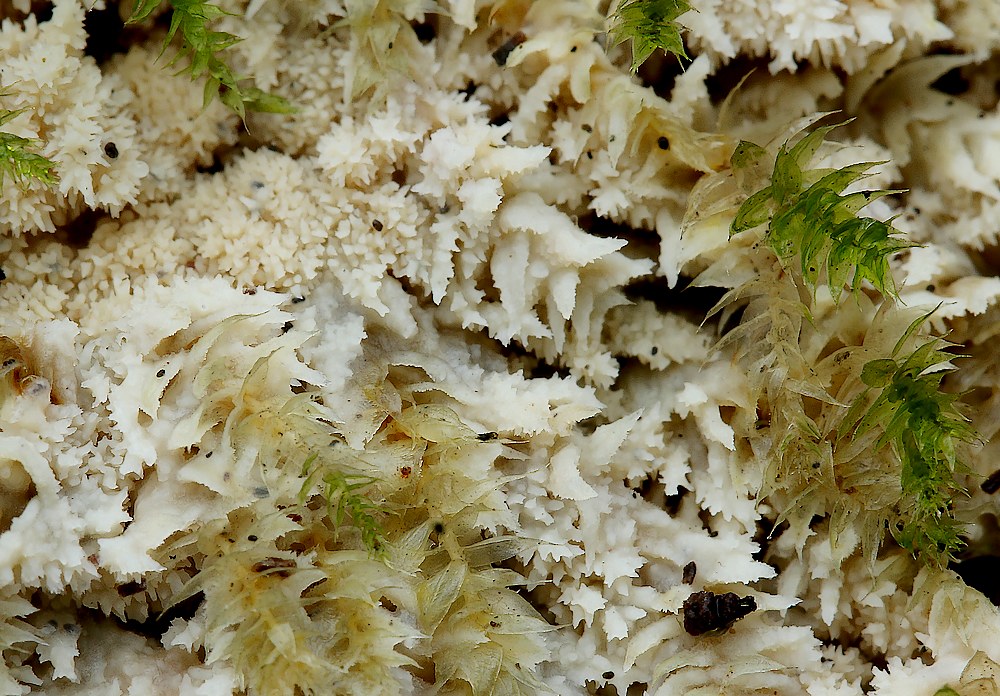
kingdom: Fungi
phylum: Basidiomycota
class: Agaricomycetes
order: Corticiales
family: Corticiaceae
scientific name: Corticiaceae
